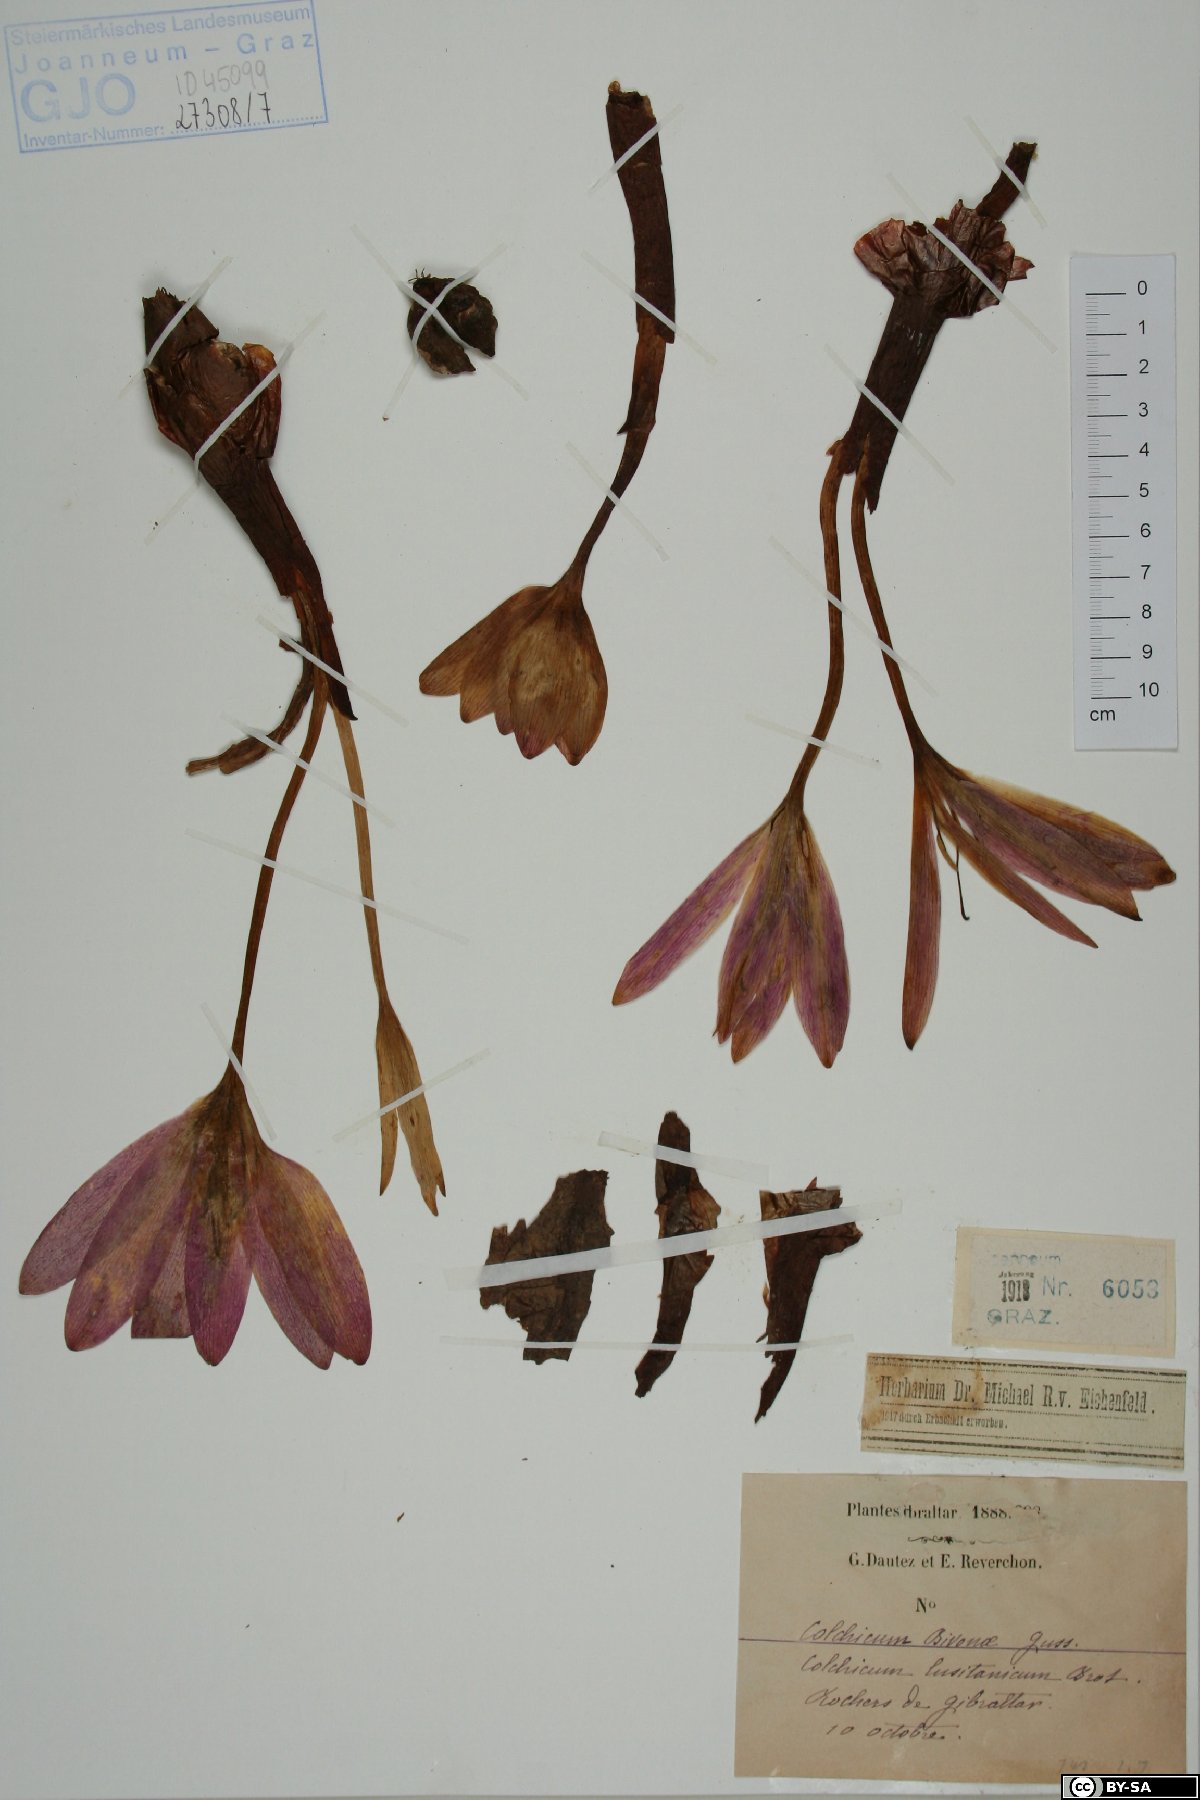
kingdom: Plantae
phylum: Tracheophyta
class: Liliopsida
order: Liliales
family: Colchicaceae
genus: Colchicum
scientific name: Colchicum bivonae
